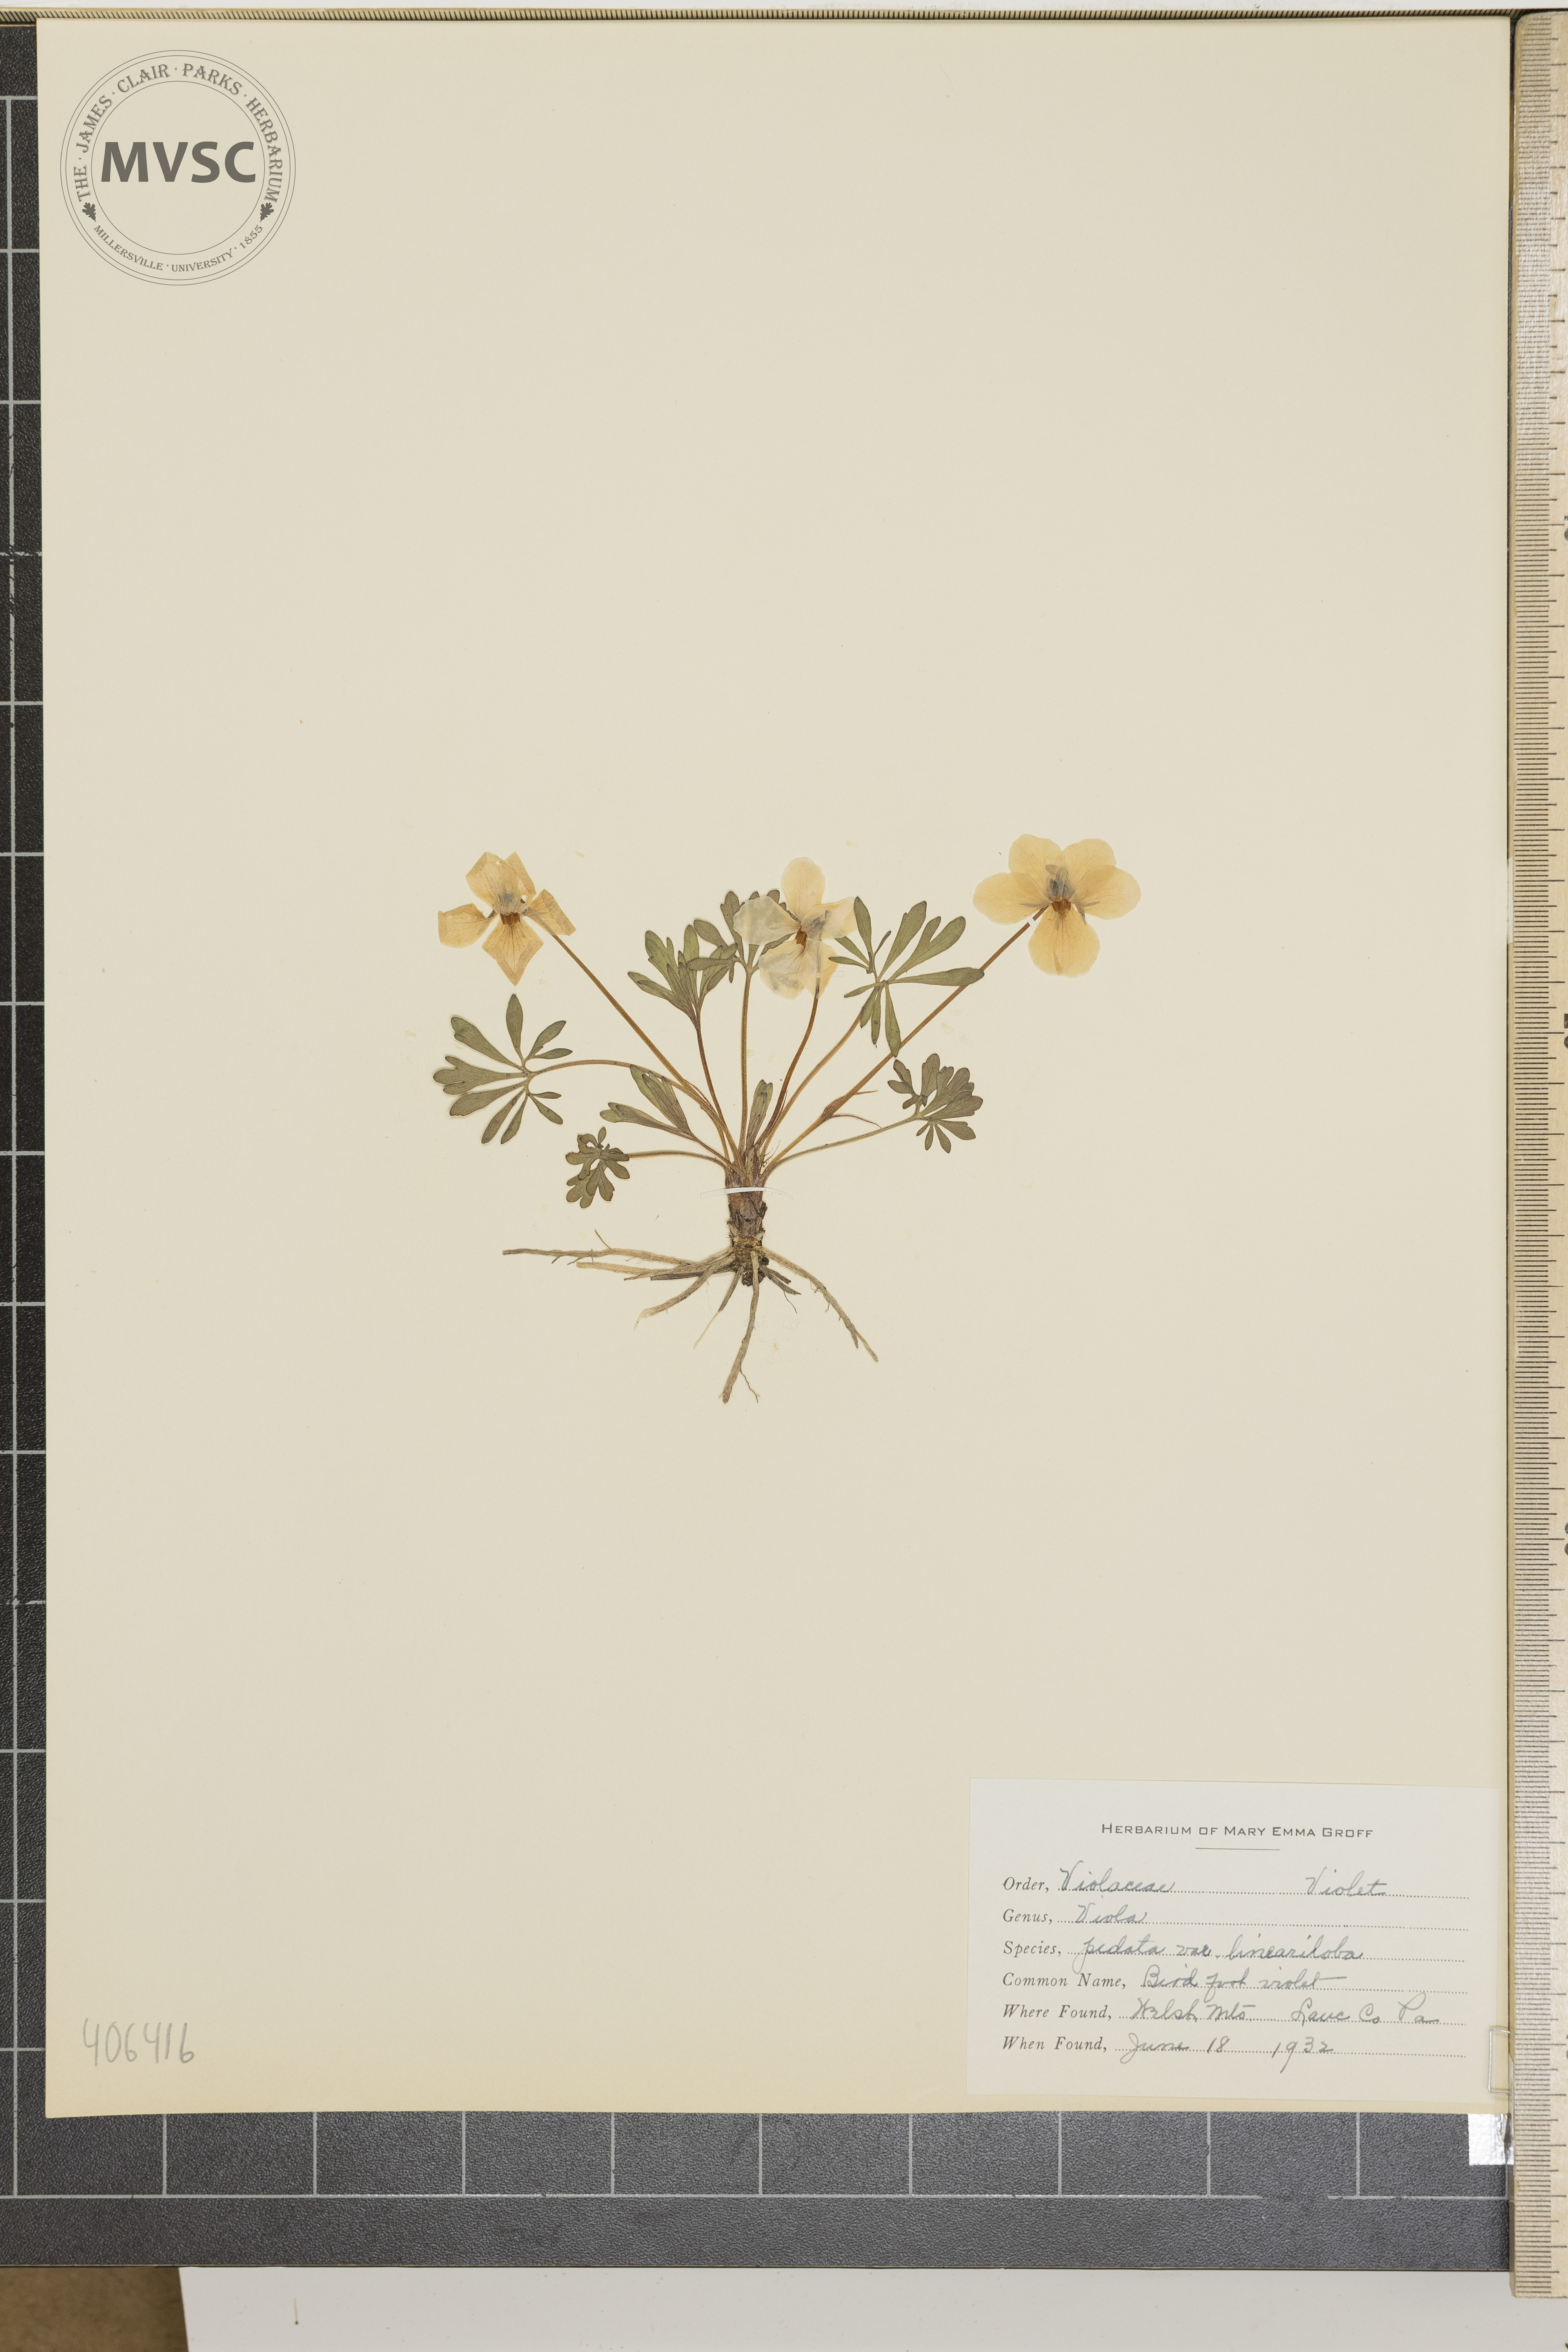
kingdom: Plantae
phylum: Tracheophyta
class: Magnoliopsida
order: Malpighiales
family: Violaceae
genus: Viola
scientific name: Viola pedata
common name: Bird's-foot violet
